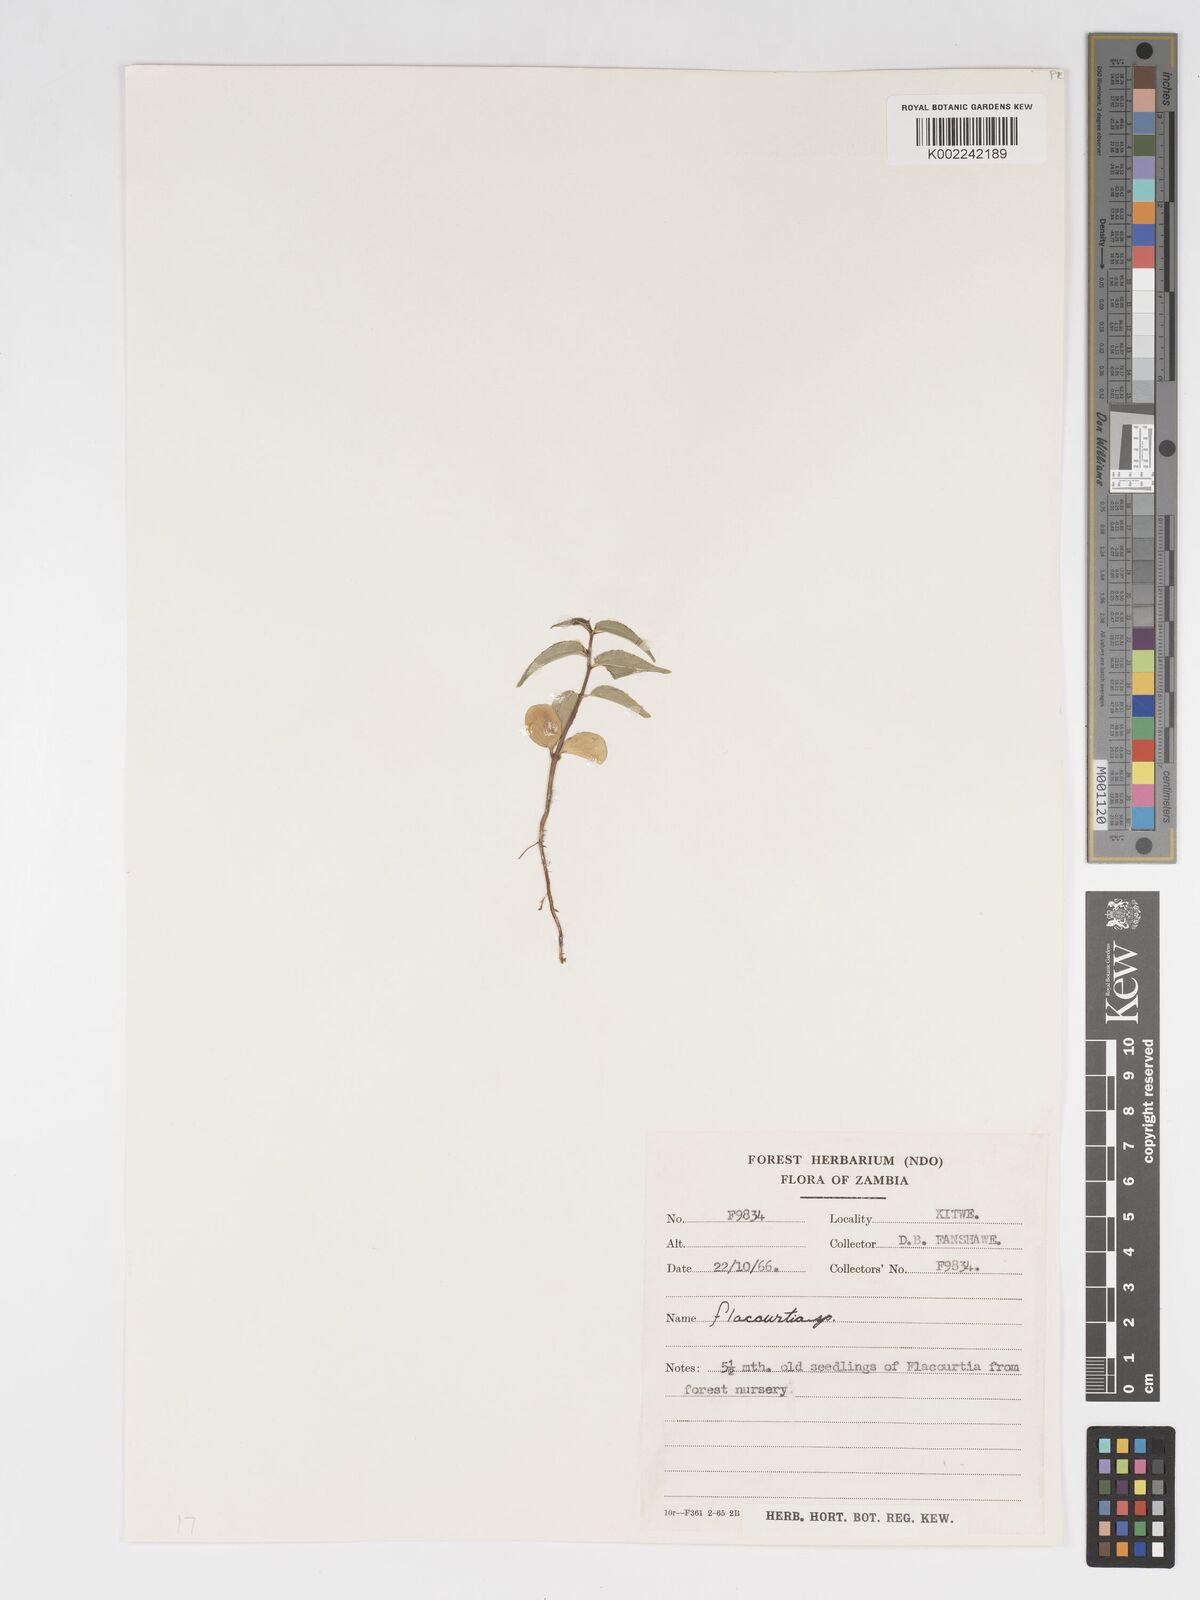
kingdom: Plantae
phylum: Tracheophyta
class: Magnoliopsida
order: Malpighiales
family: Salicaceae
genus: Flacourtia
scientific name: Flacourtia
